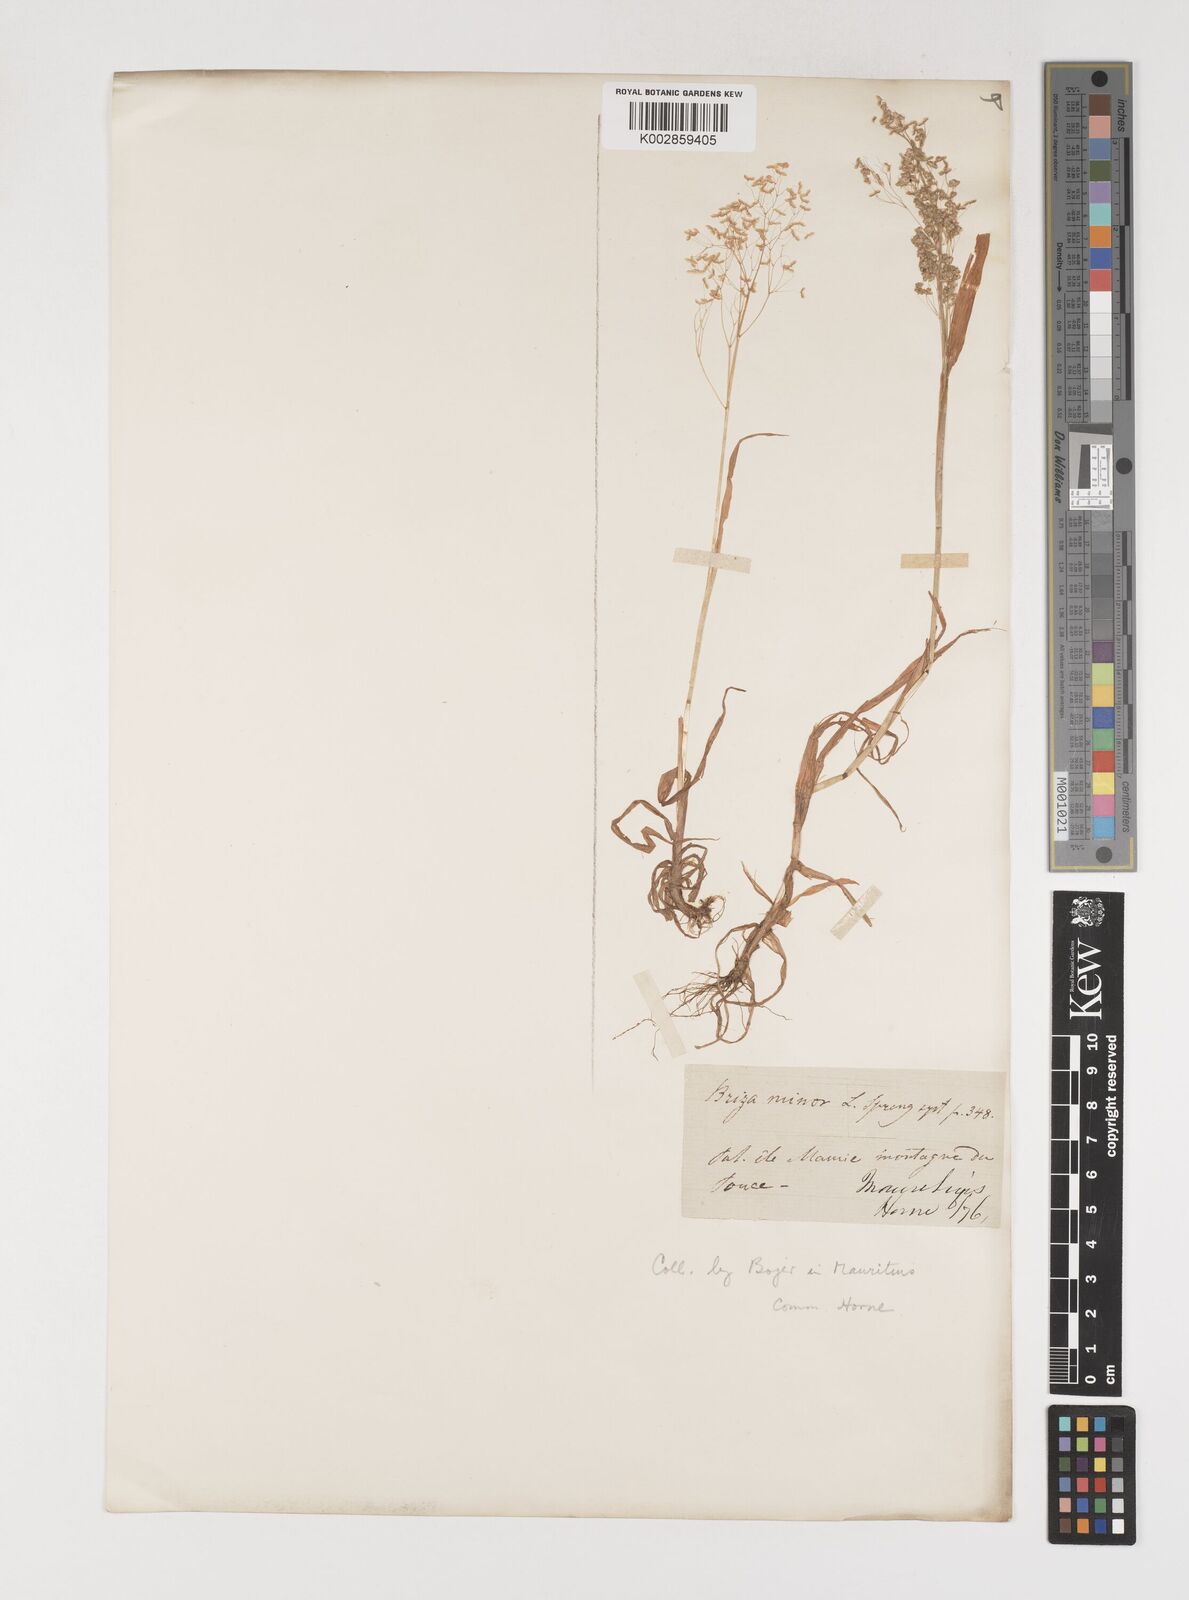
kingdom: Plantae
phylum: Tracheophyta
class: Liliopsida
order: Poales
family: Poaceae
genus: Briza
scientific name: Briza minor
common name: Lesser quaking-grass
